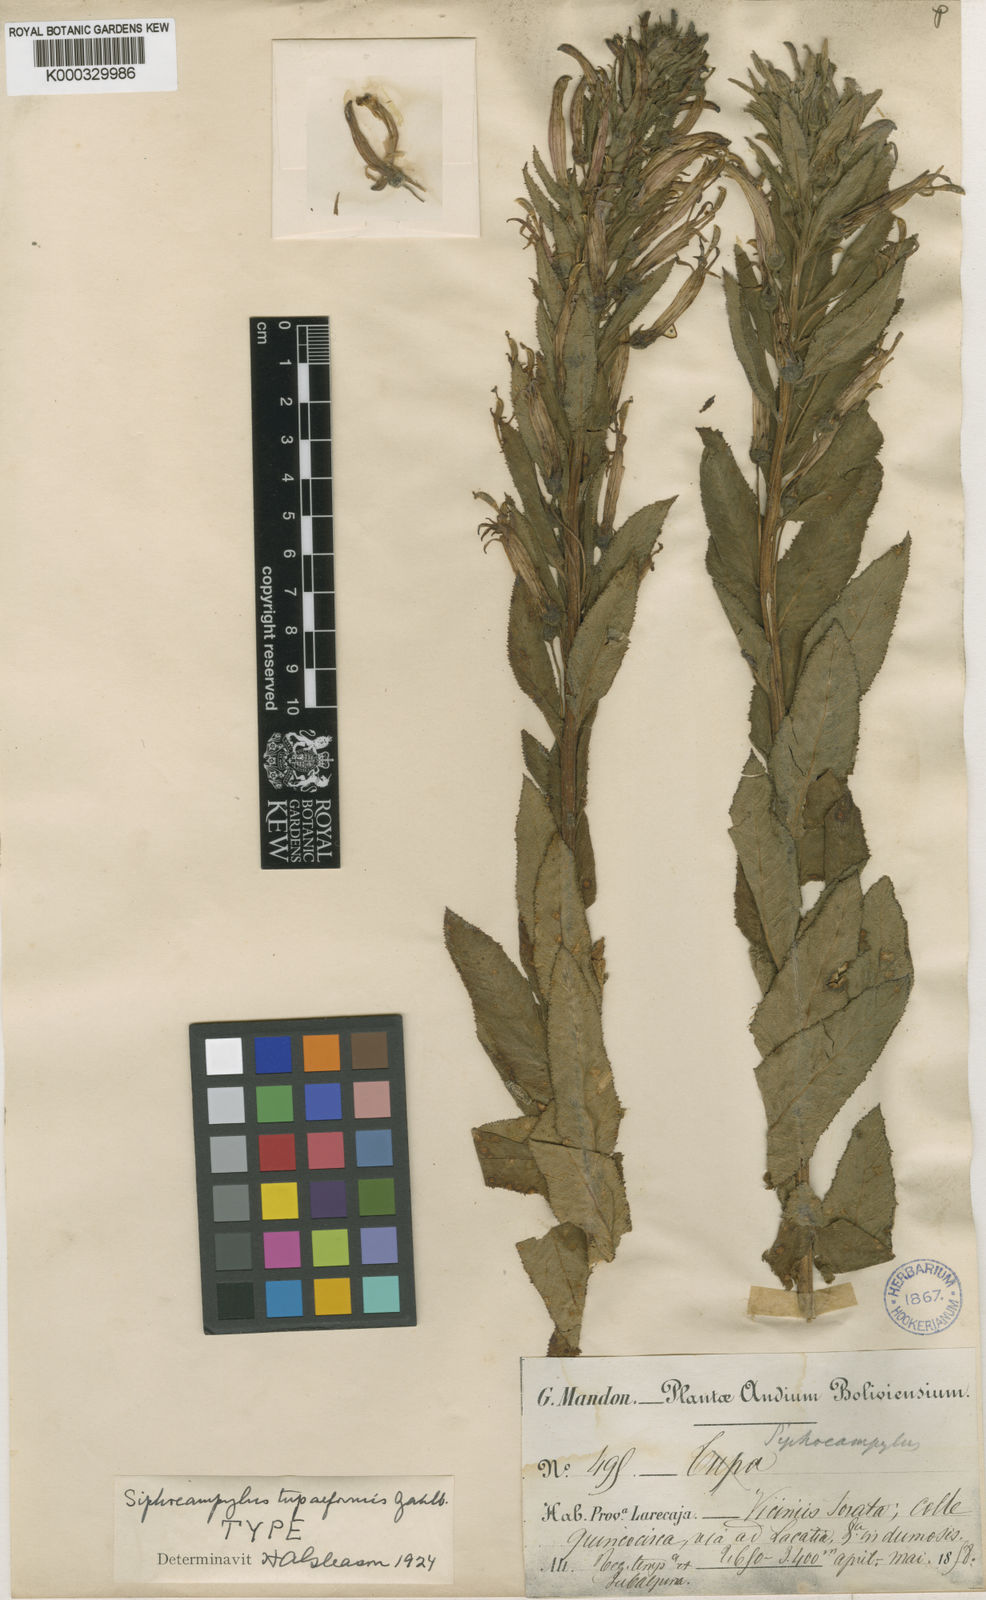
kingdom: Plantae
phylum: Tracheophyta
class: Magnoliopsida
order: Asterales
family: Campanulaceae
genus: Siphocampylus
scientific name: Siphocampylus tupaeformis
